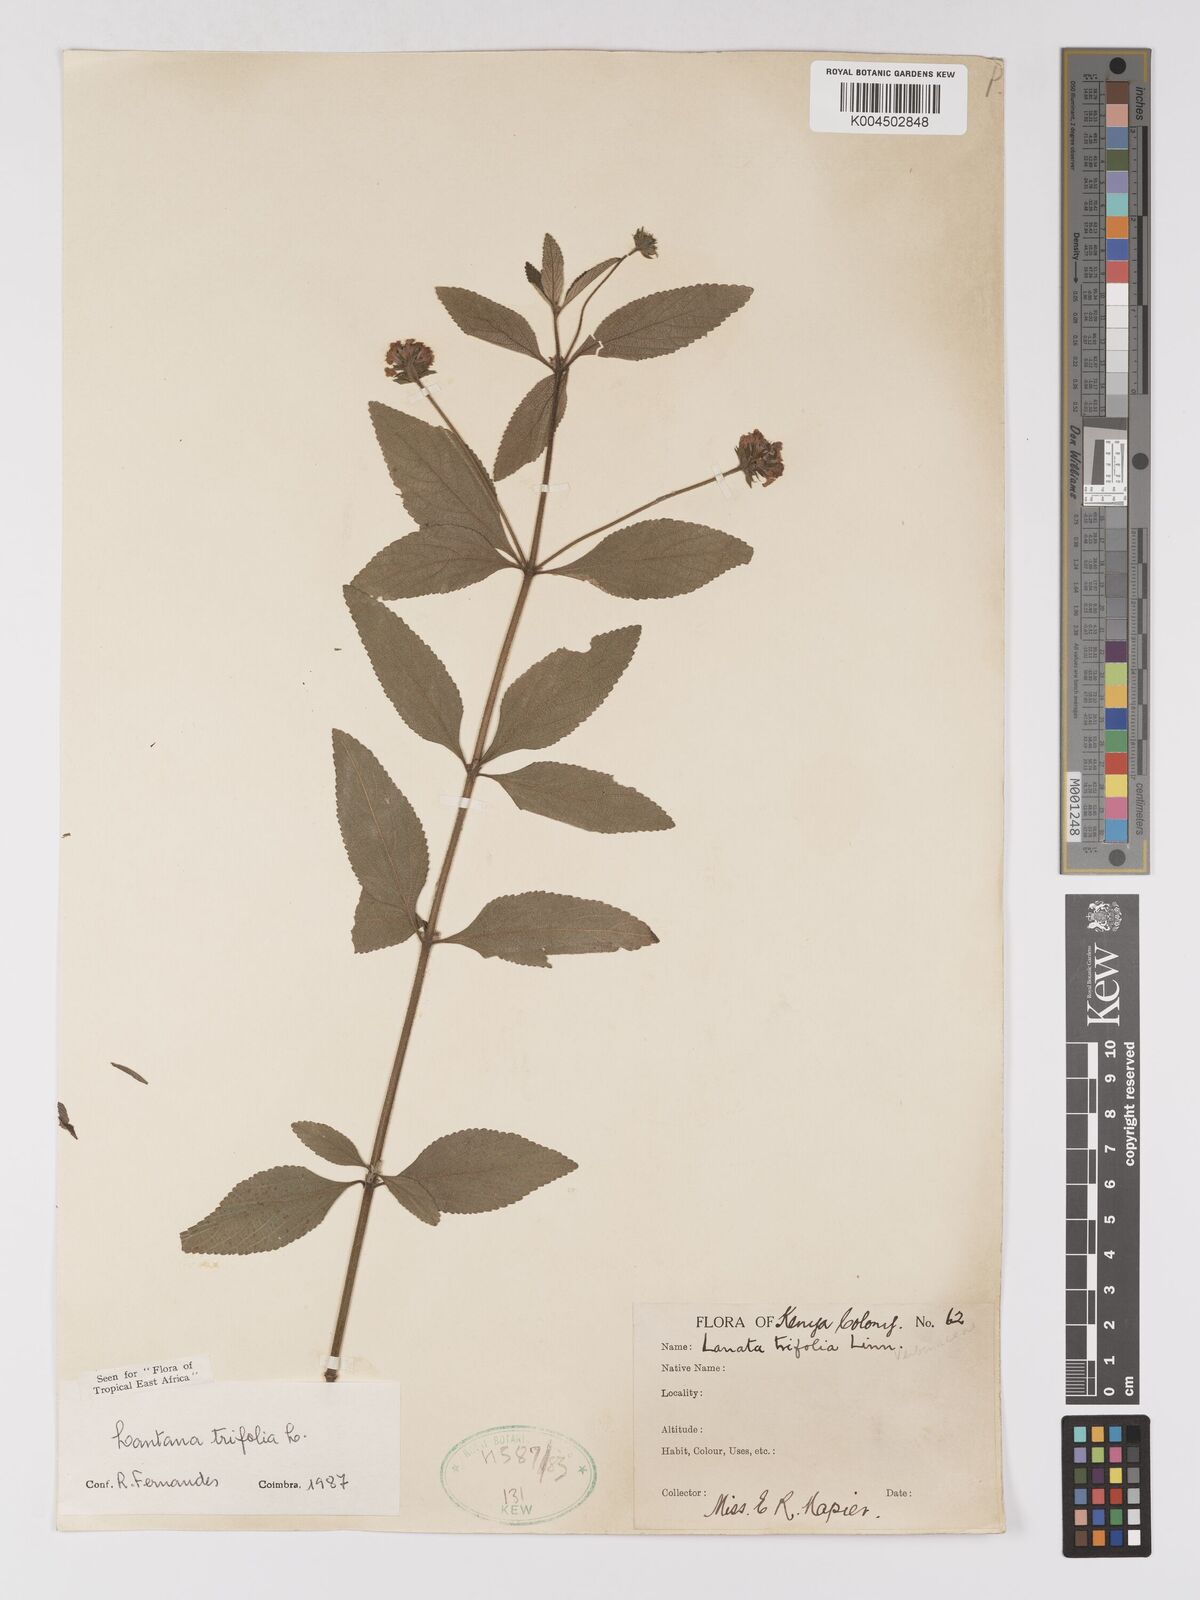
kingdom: Plantae
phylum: Tracheophyta
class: Magnoliopsida
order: Lamiales
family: Verbenaceae
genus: Lantana
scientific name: Lantana trifolia
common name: Sweet-sage
